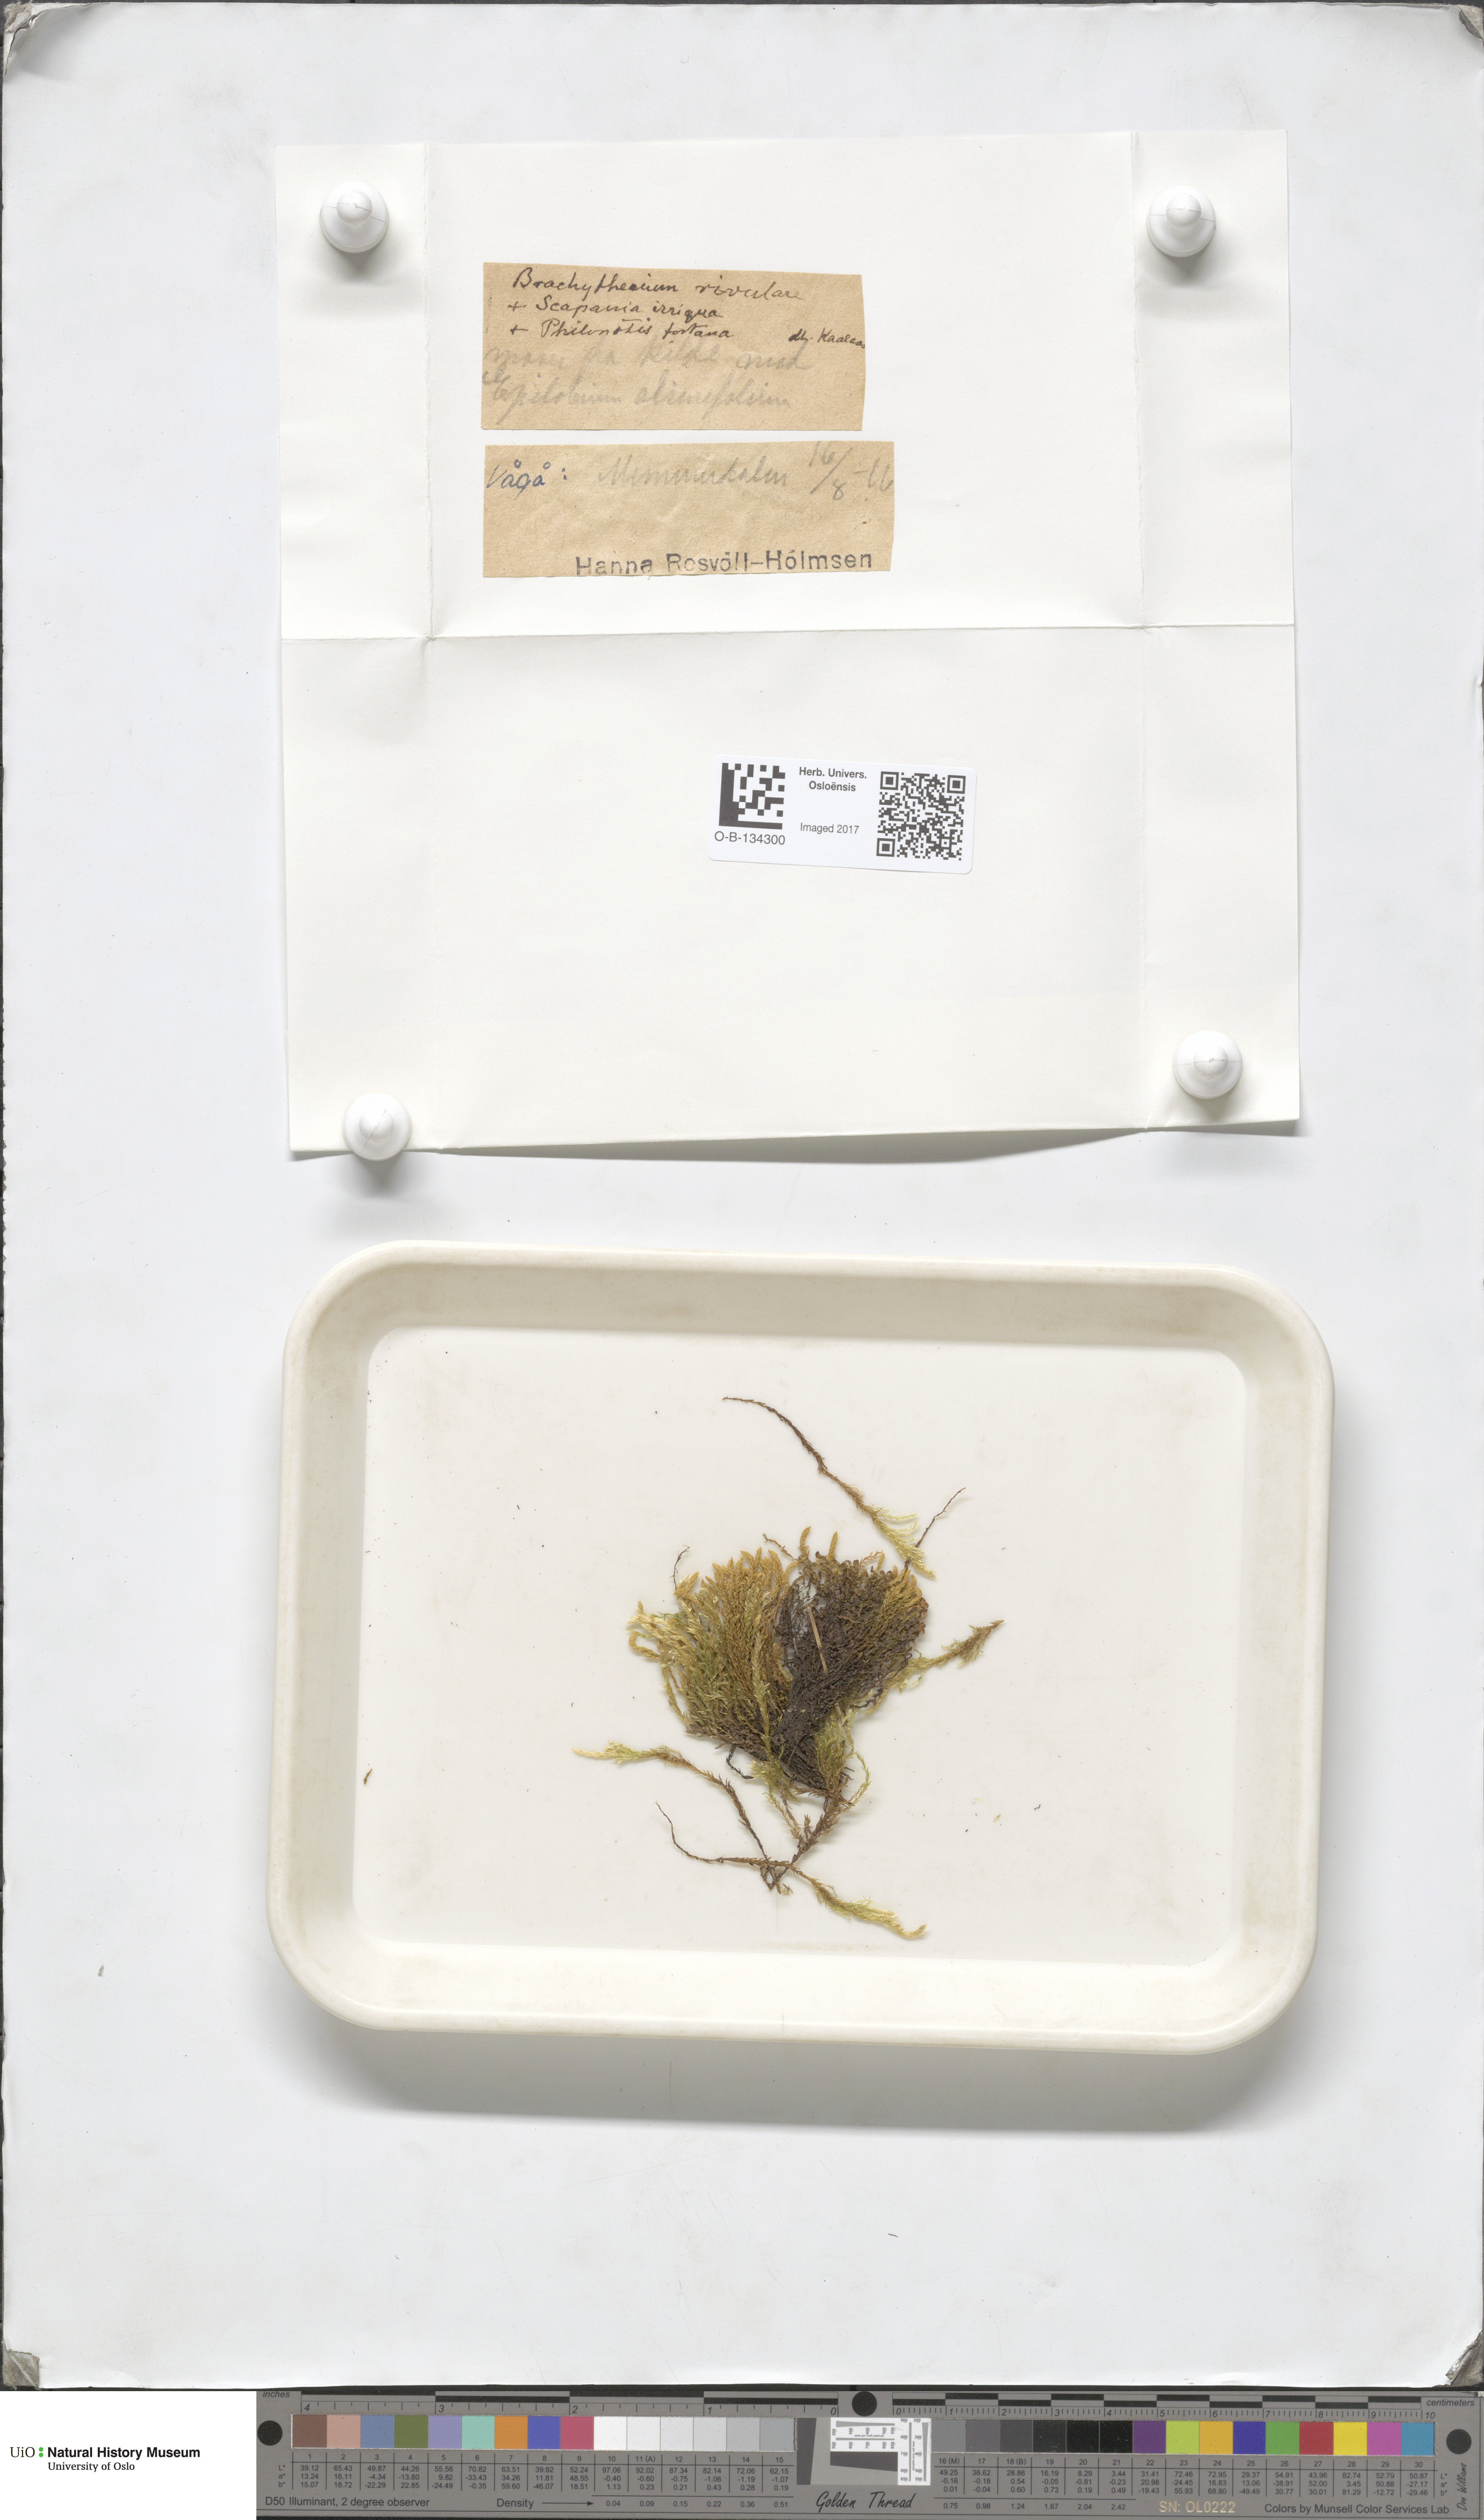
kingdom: Plantae
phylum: Bryophyta
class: Bryopsida
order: Hypnales
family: Brachytheciaceae
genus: Brachythecium
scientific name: Brachythecium rivulare
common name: River ragged moss
